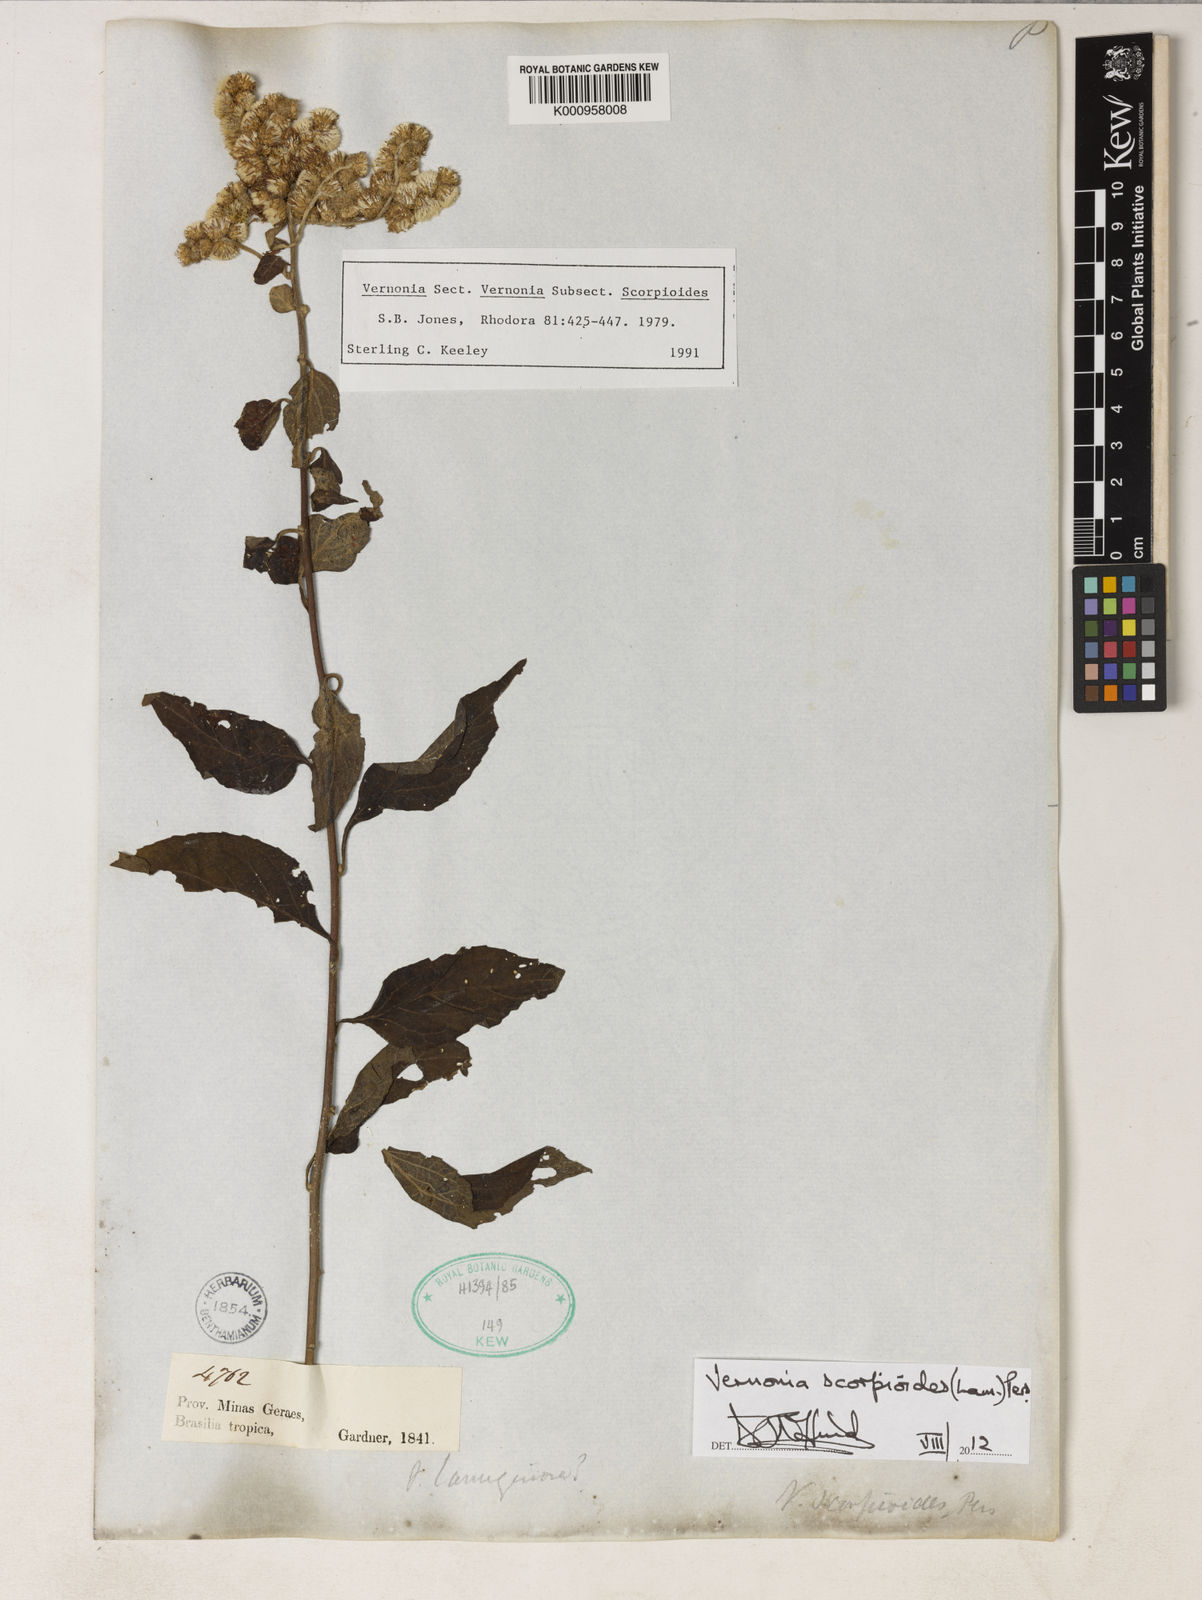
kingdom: Plantae
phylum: Tracheophyta
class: Magnoliopsida
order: Asterales
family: Asteraceae
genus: Cyrtocymura
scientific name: Cyrtocymura scorpioides
